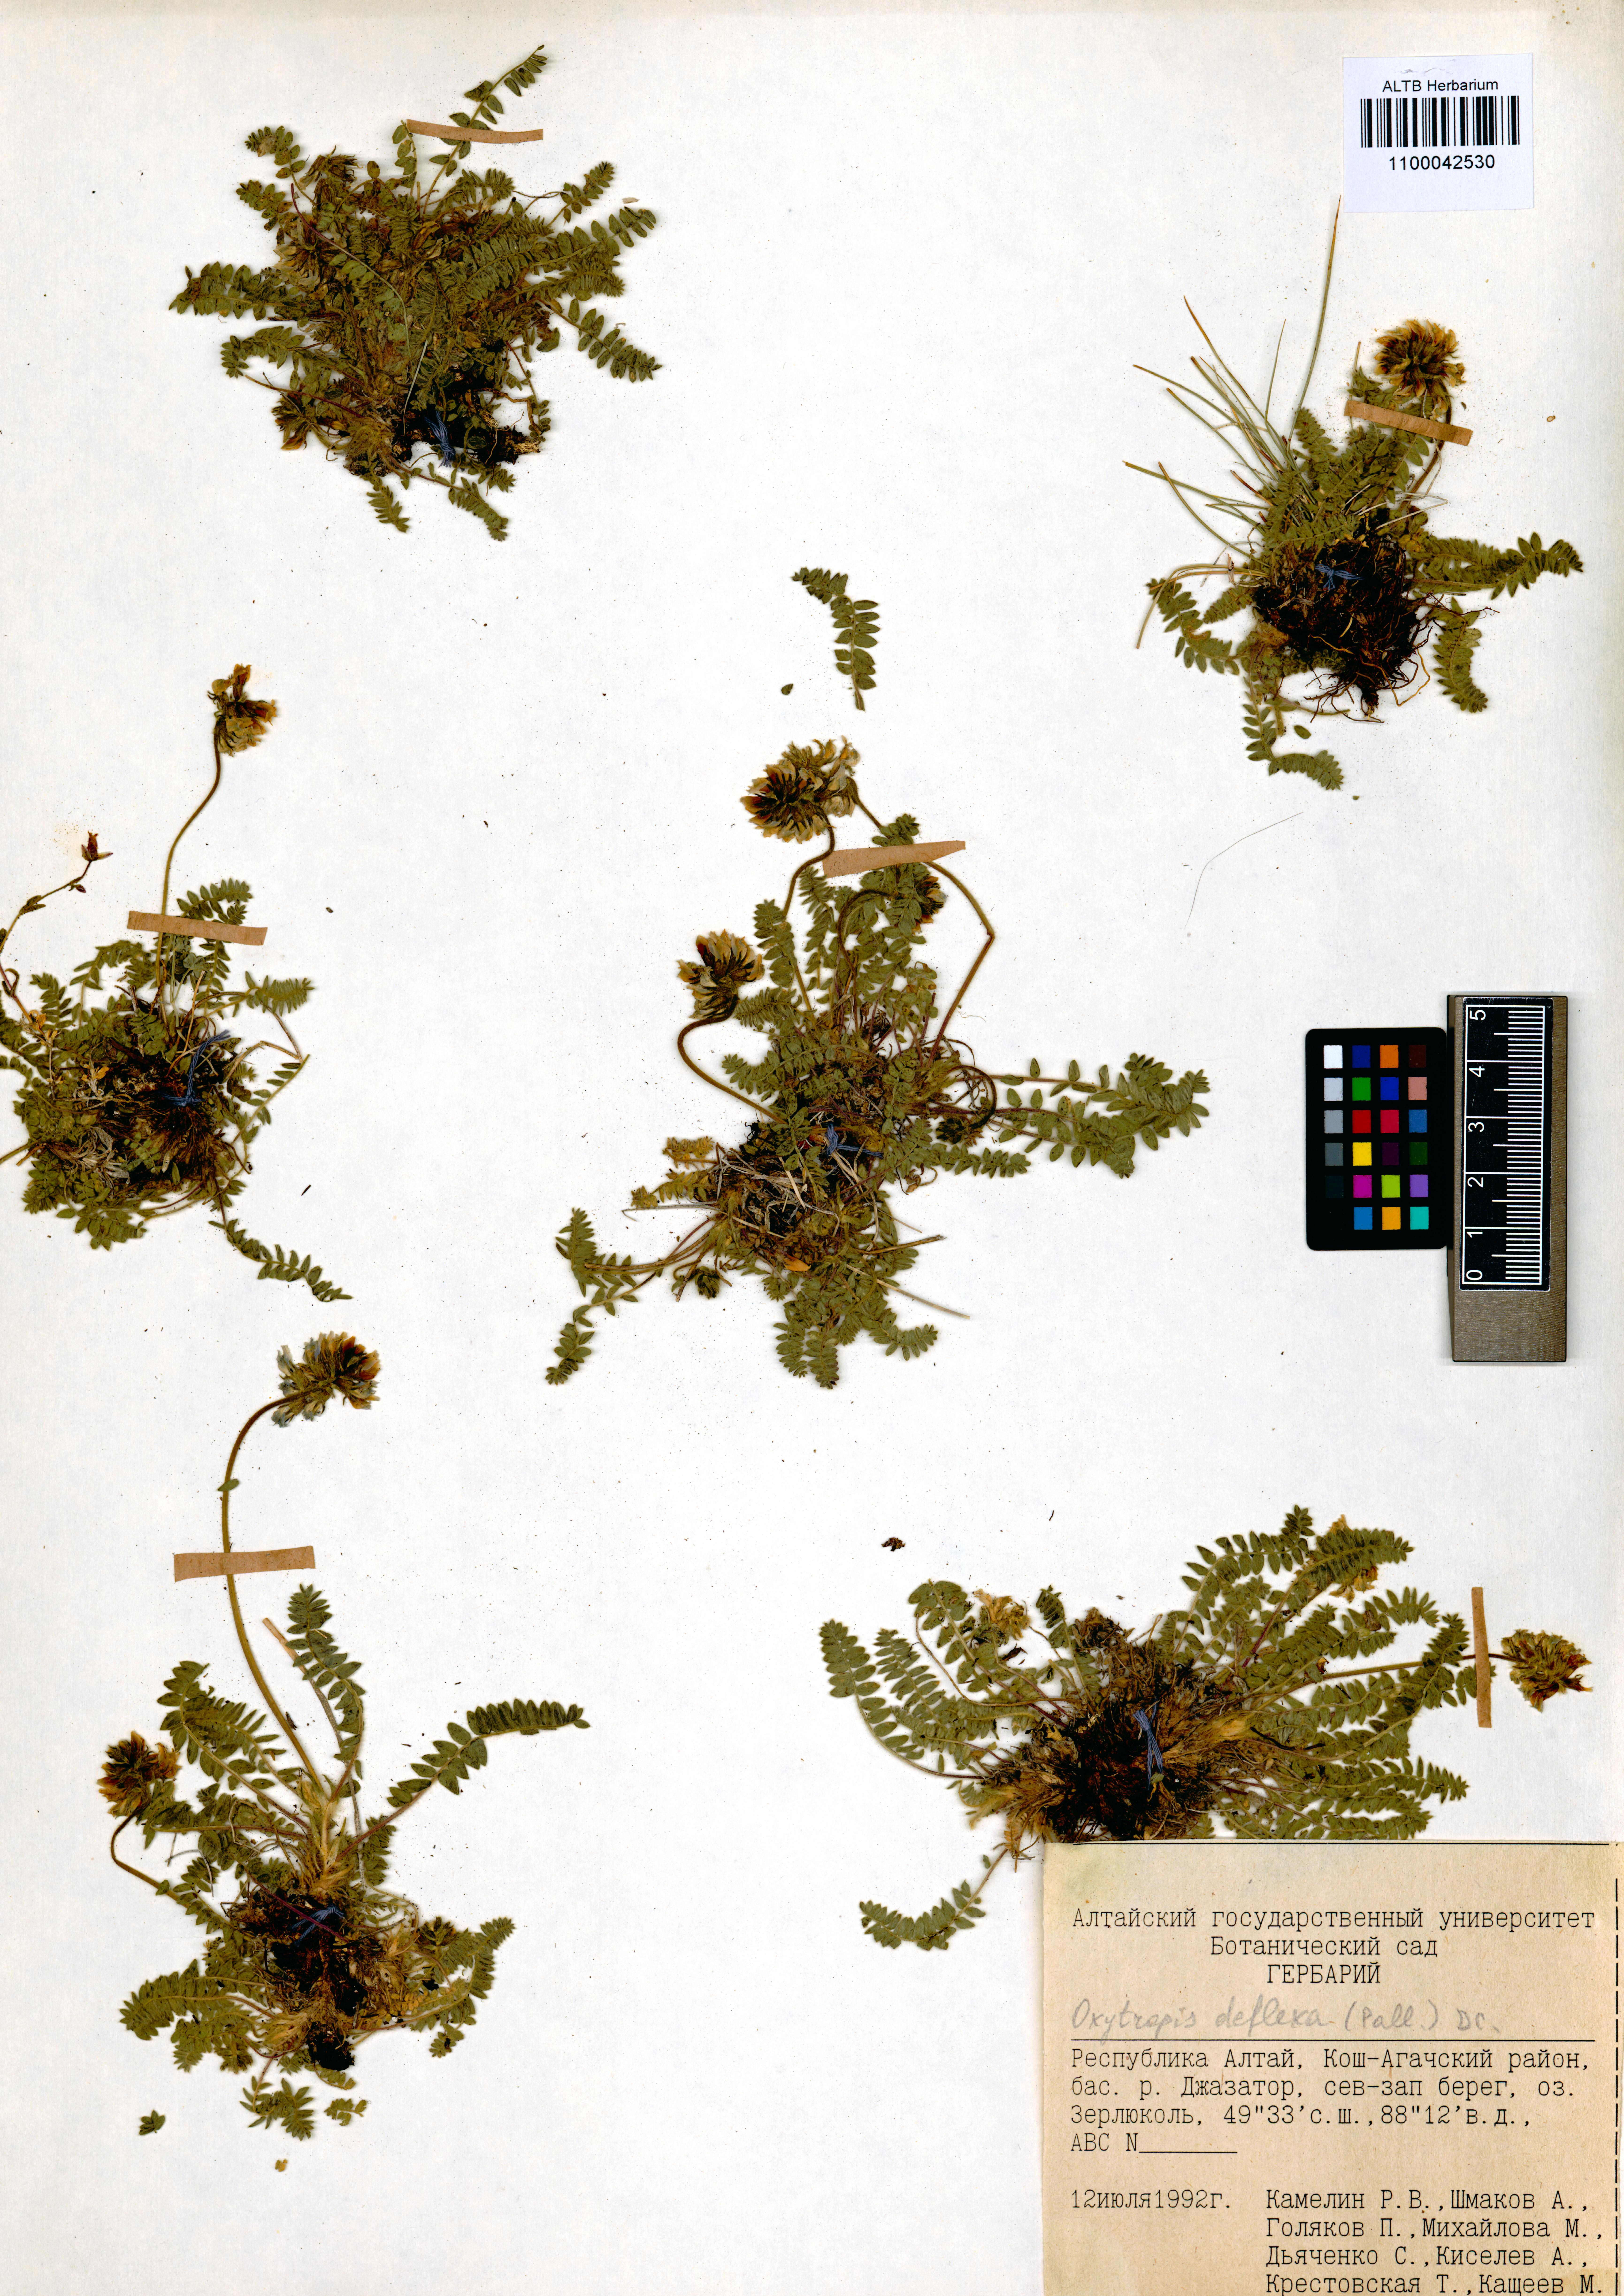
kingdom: Plantae
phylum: Tracheophyta
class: Magnoliopsida
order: Fabales
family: Fabaceae
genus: Oxytropis
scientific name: Oxytropis deflexa
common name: Stemmed oxytrope
